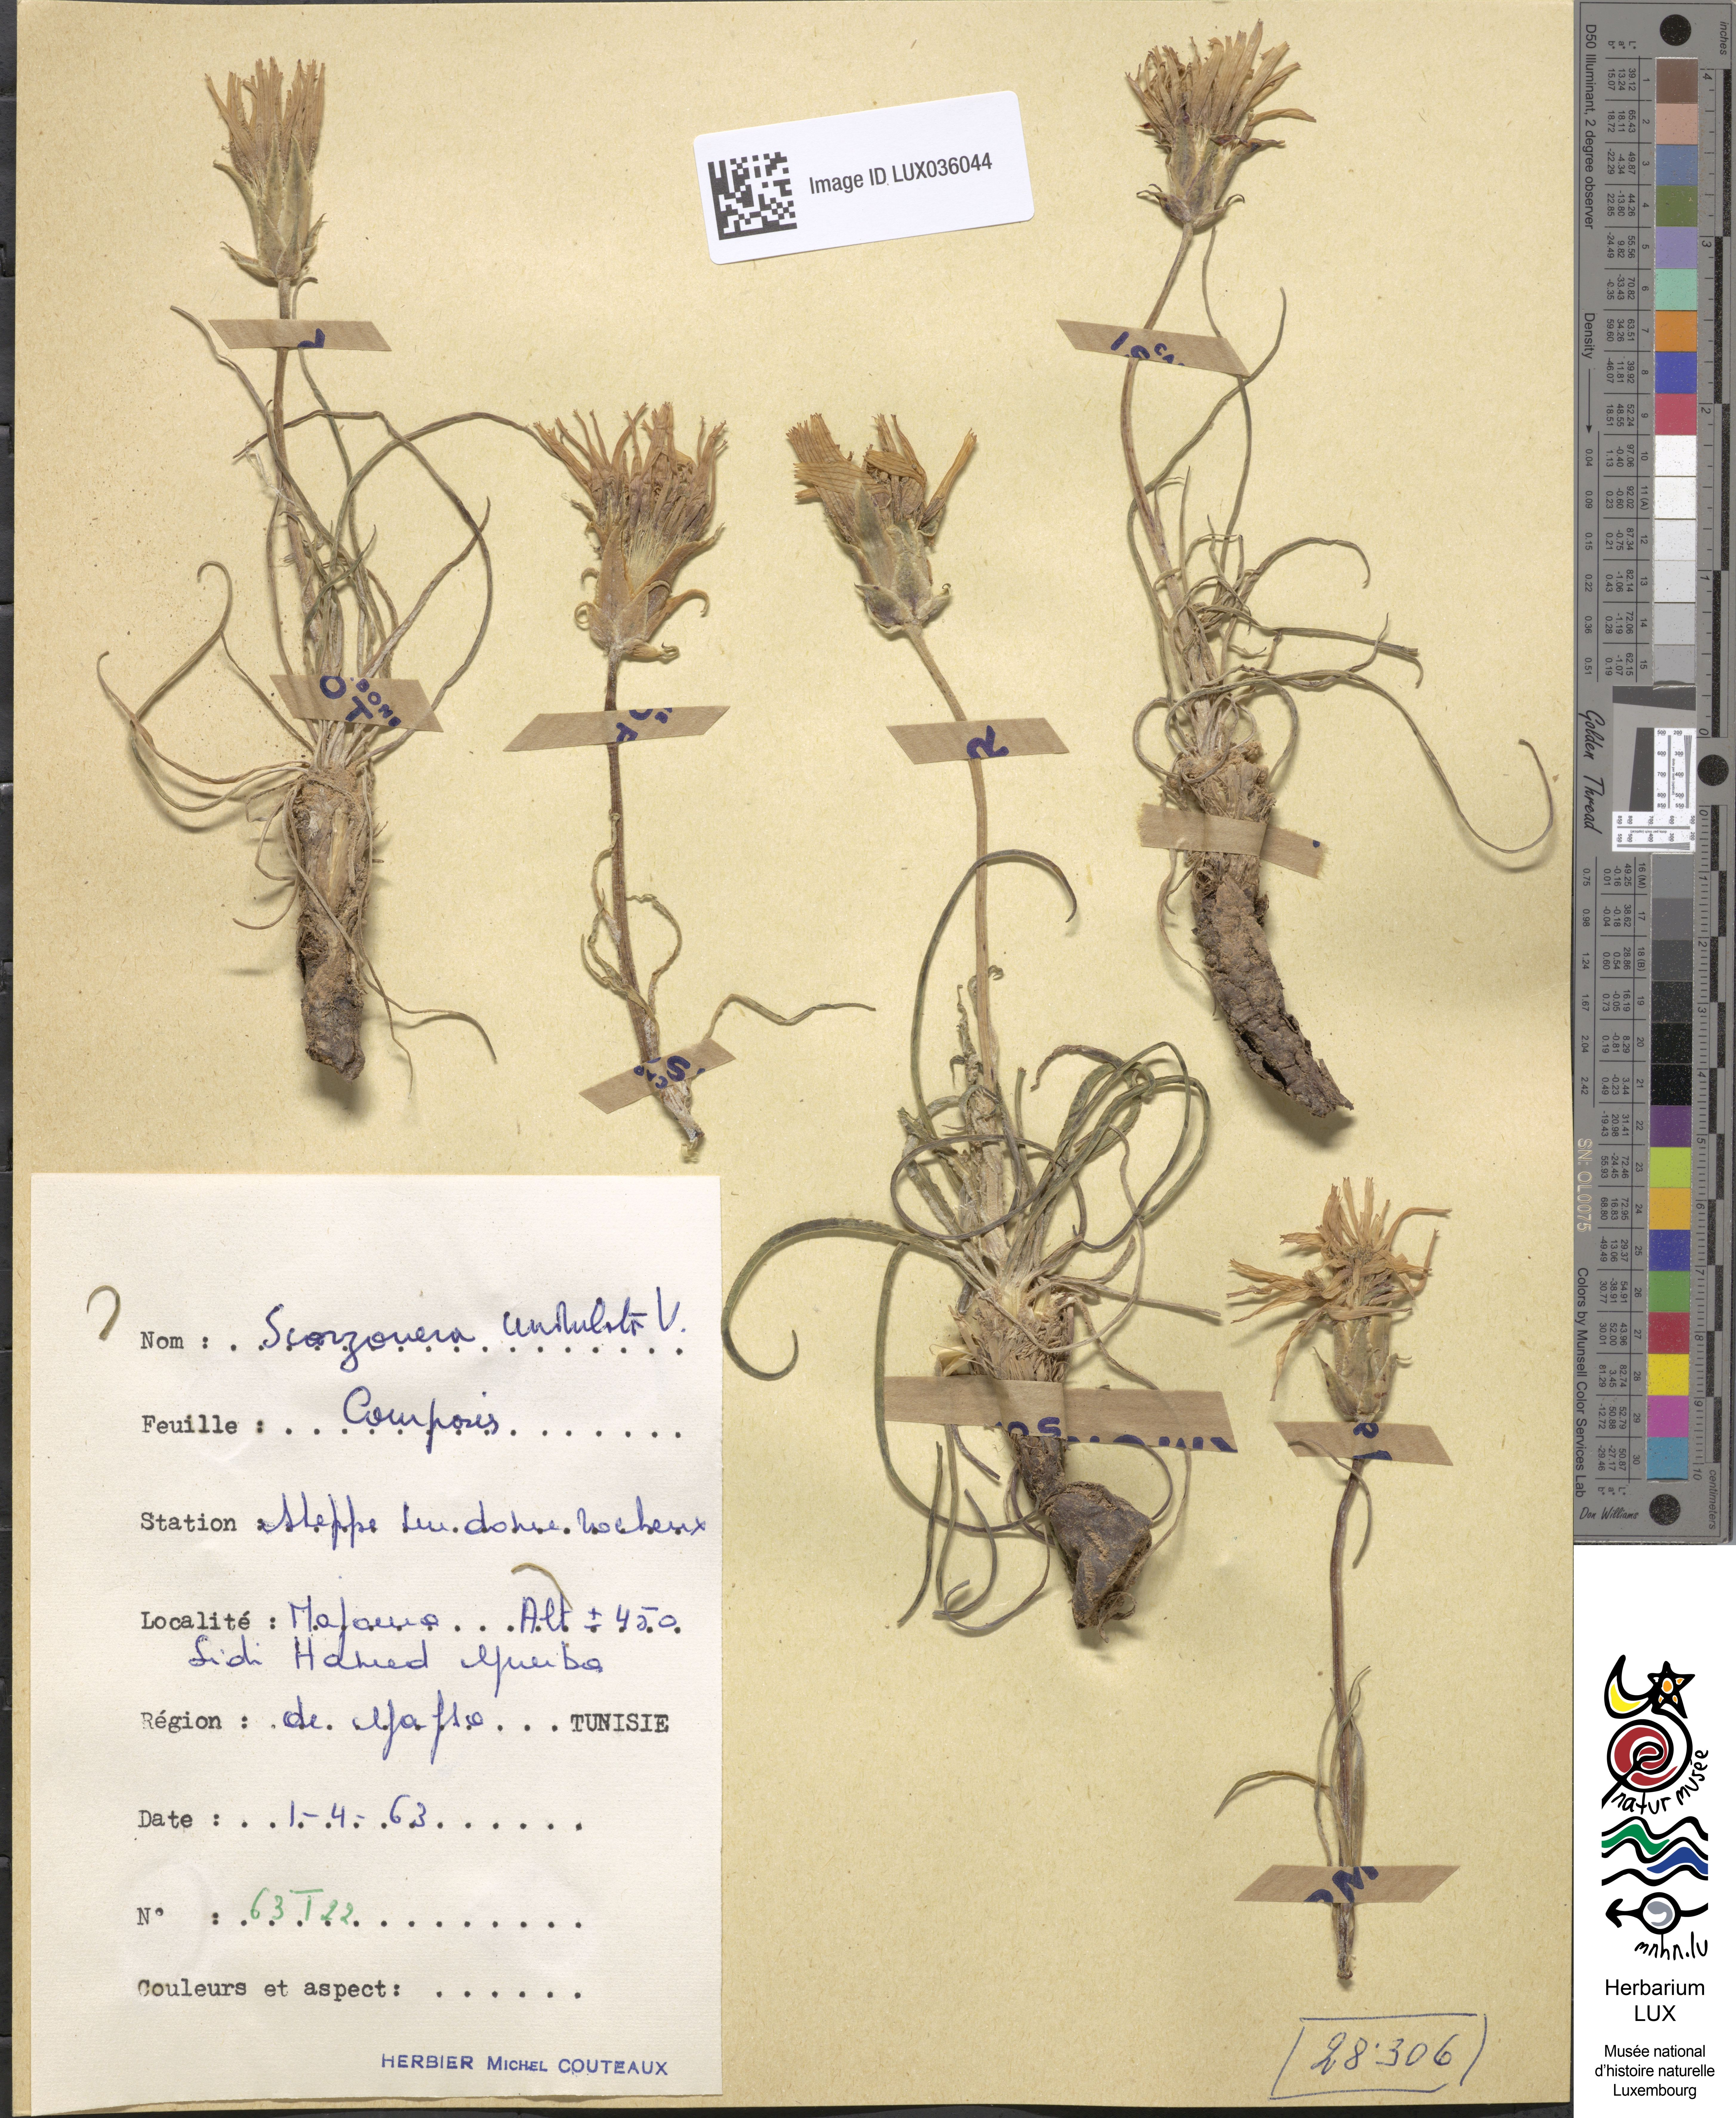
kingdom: Plantae
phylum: Tracheophyta
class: Magnoliopsida
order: Asterales
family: Asteraceae
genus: Pseudopodospermum
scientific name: Pseudopodospermum undulatum
